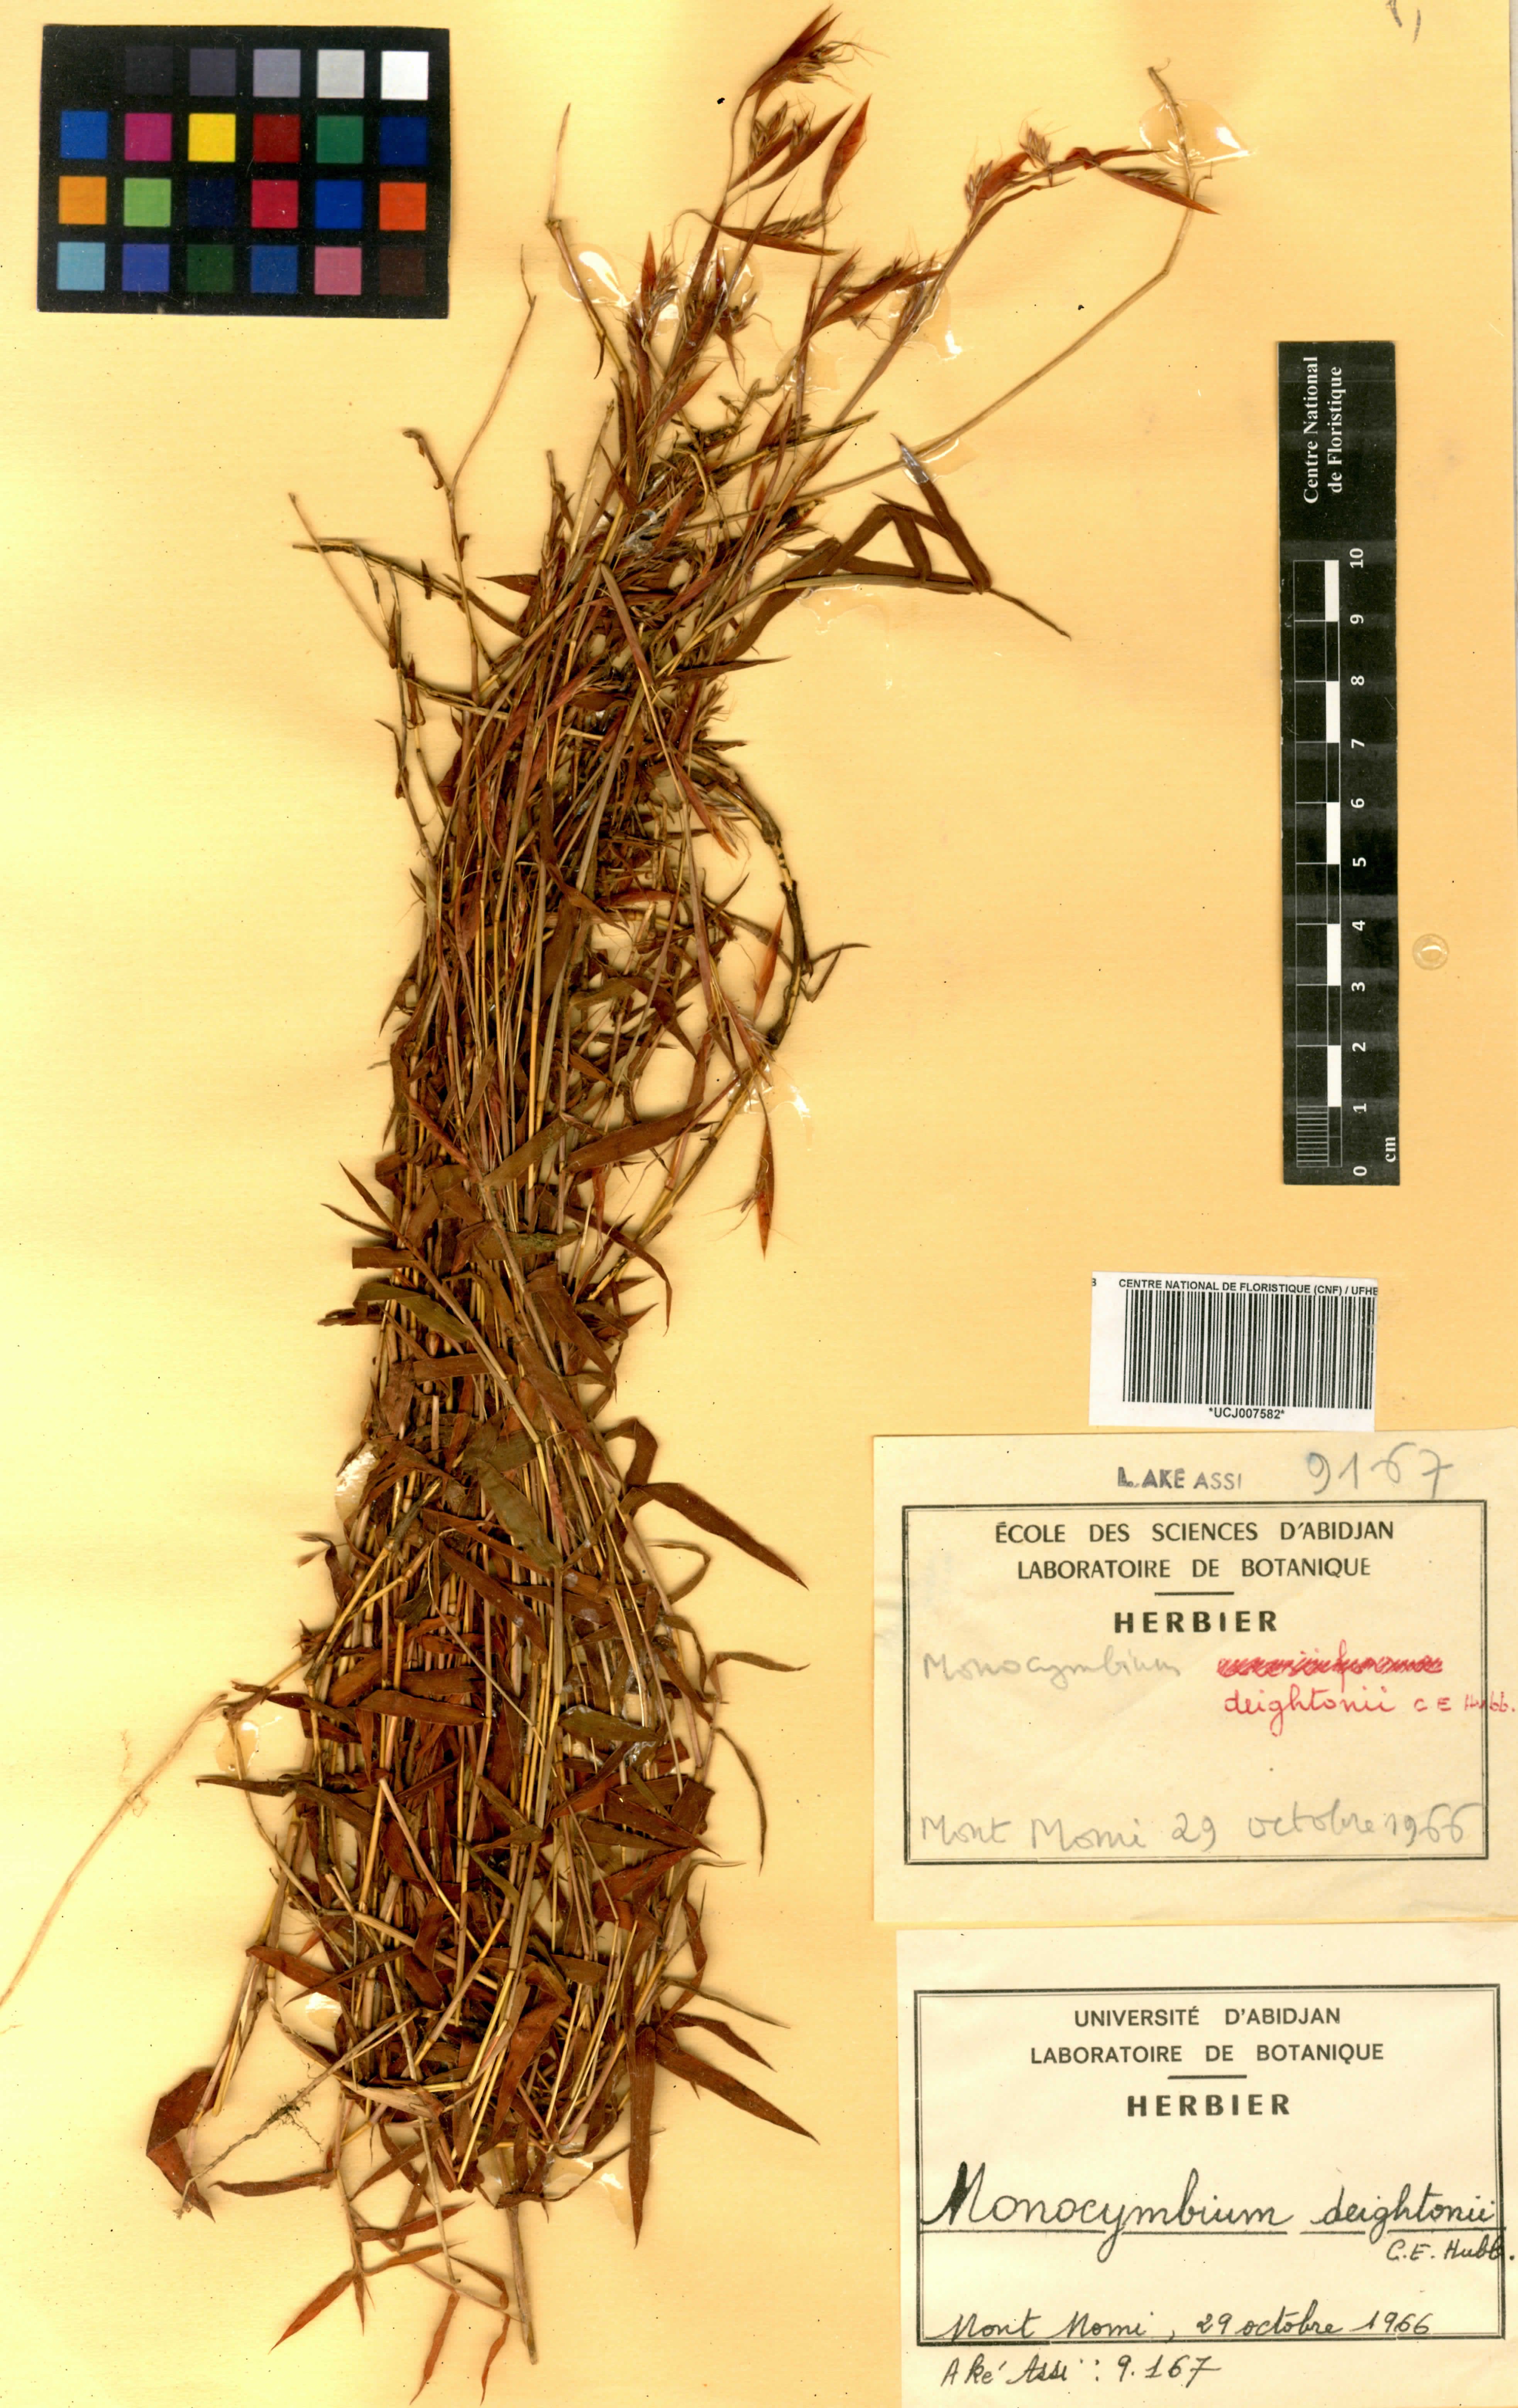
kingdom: Plantae
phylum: Tracheophyta
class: Liliopsida
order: Poales
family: Poaceae
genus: Monocymbium
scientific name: Monocymbium deightonii
